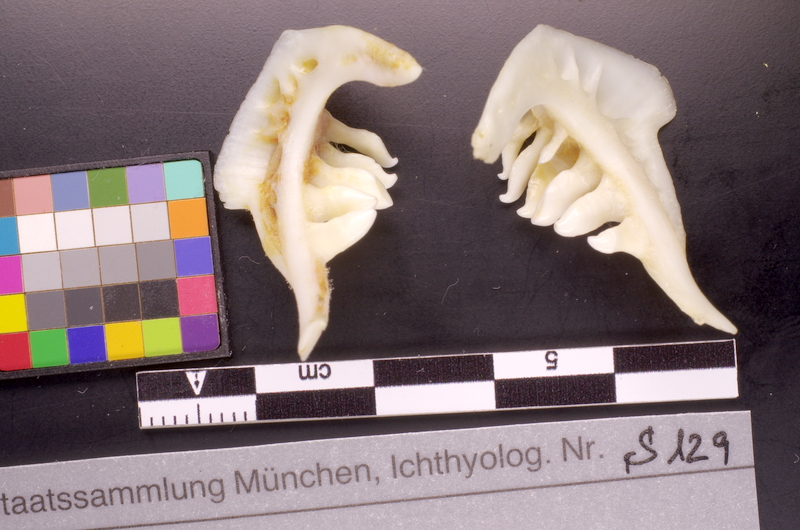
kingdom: Animalia
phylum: Chordata
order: Cypriniformes
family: Cyprinidae
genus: Rutilus
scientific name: Rutilus rutilus
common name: Roach
